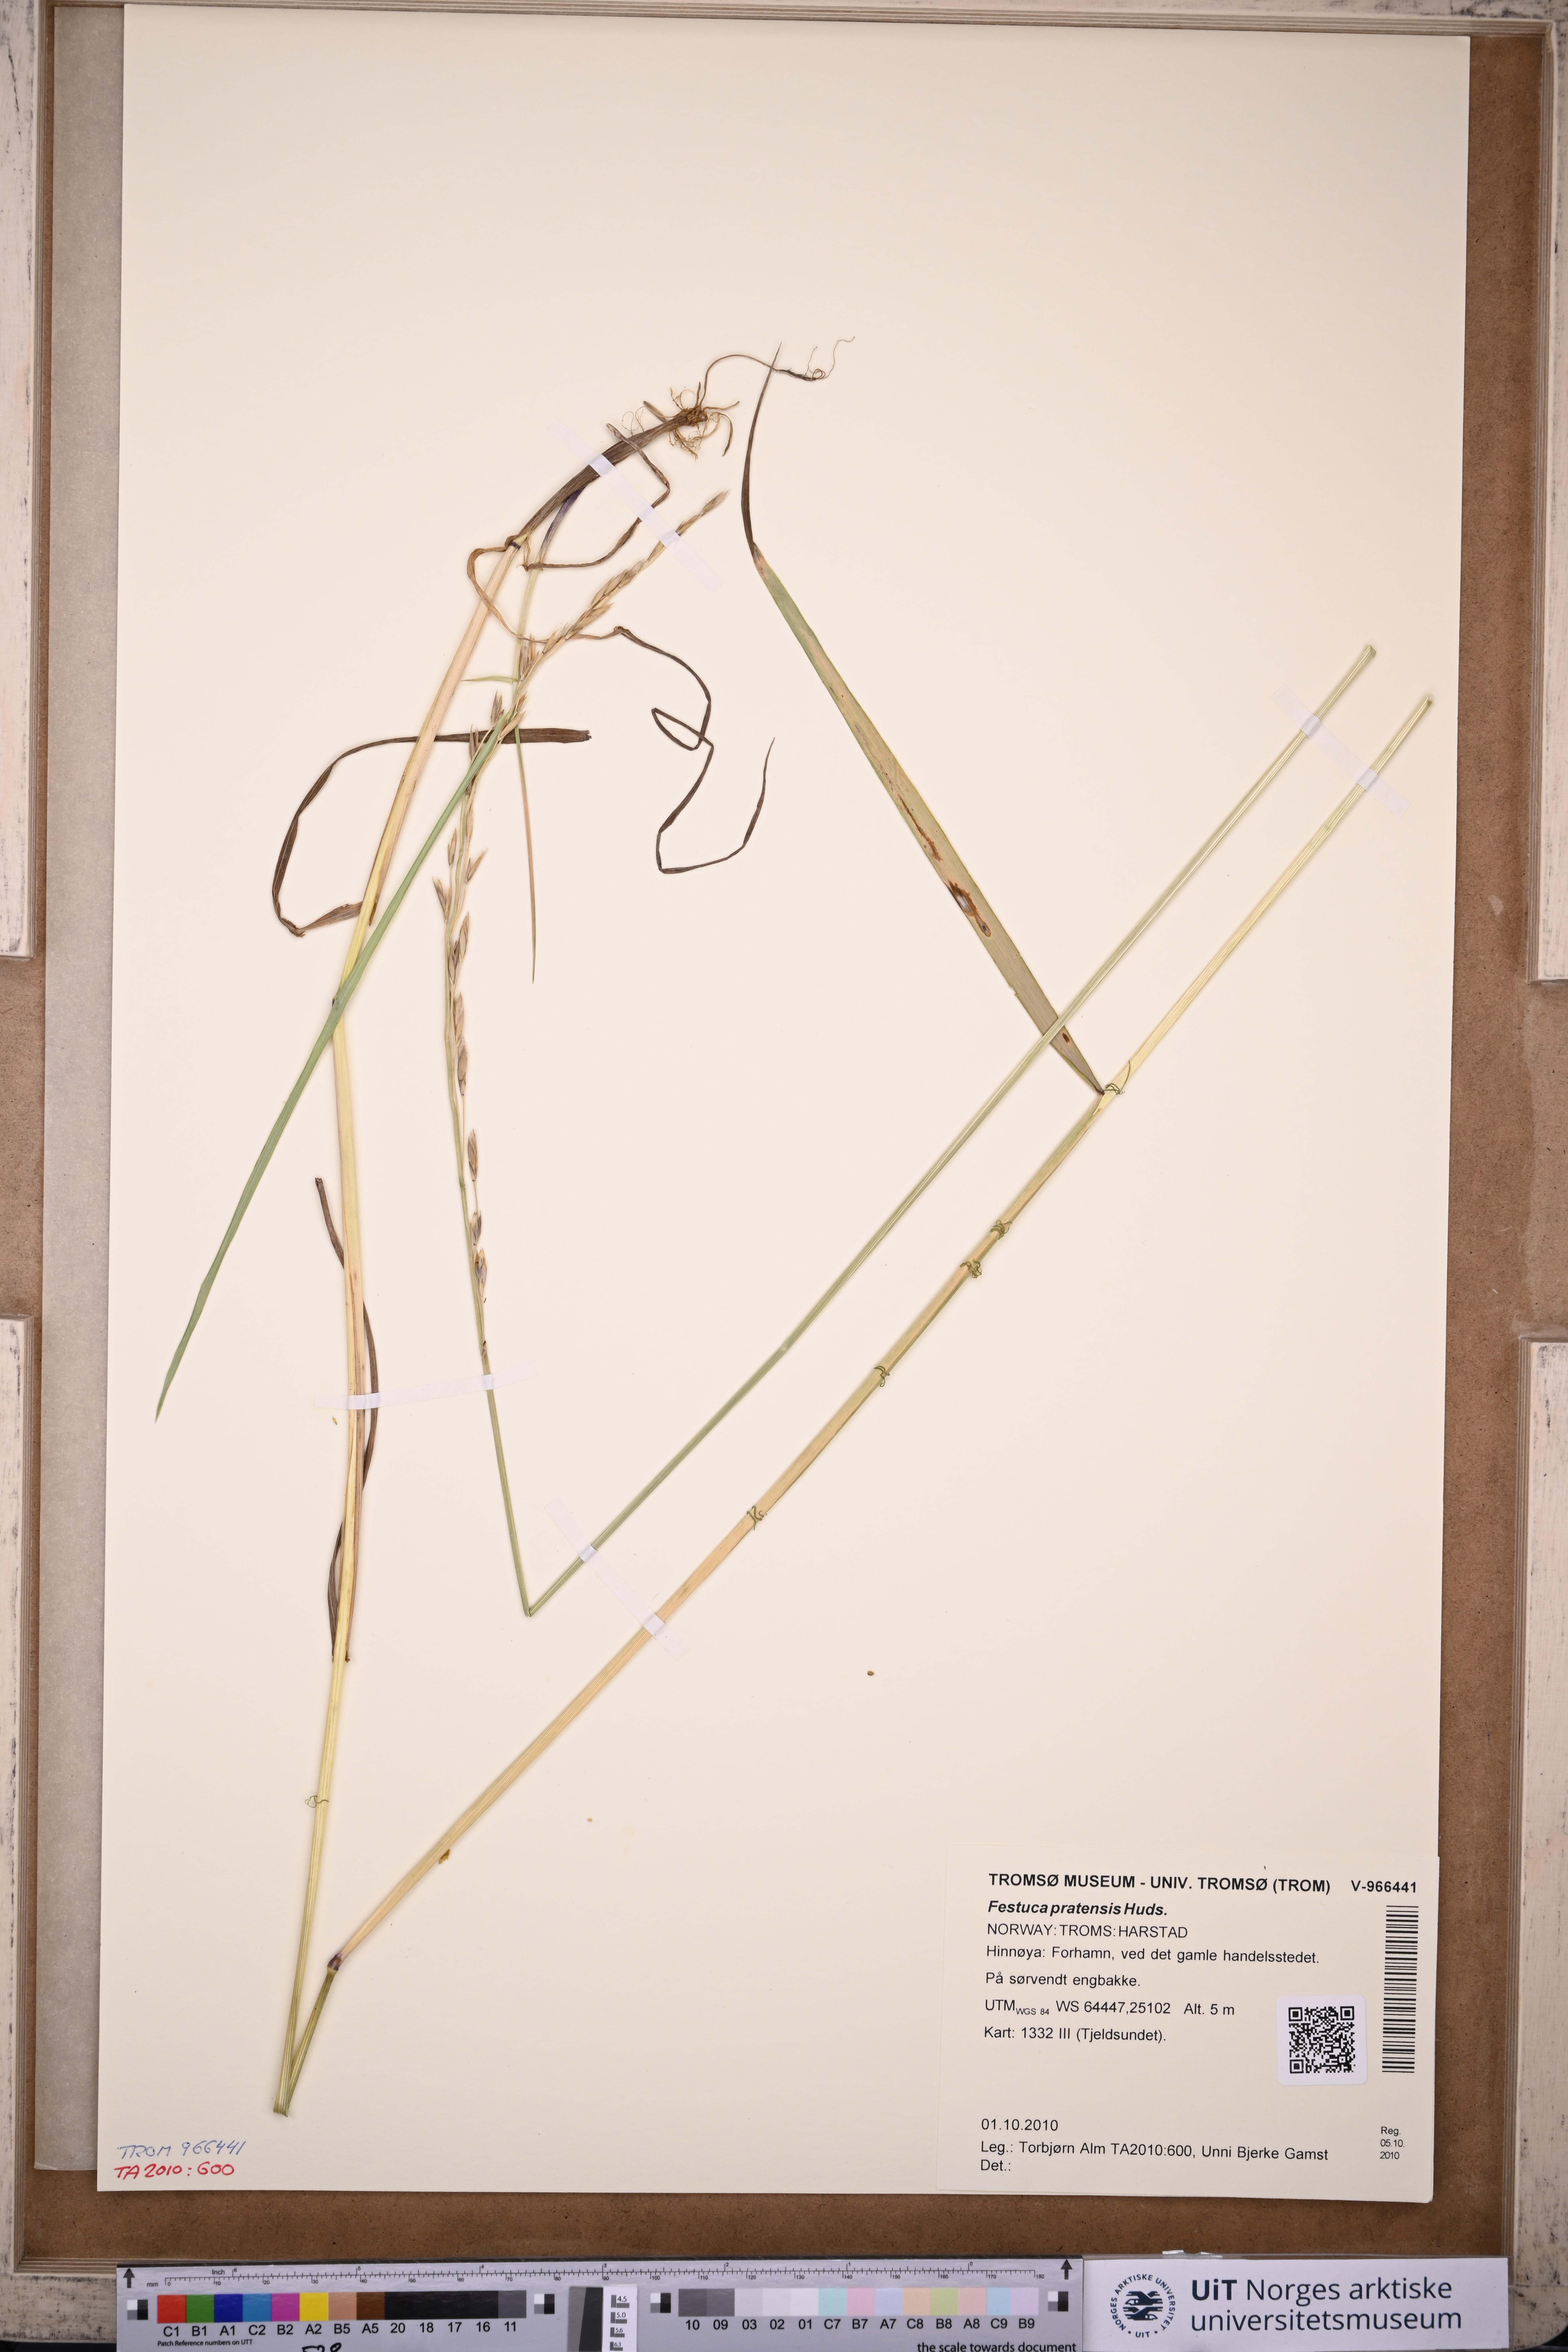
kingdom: Plantae
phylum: Tracheophyta
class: Liliopsida
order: Poales
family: Poaceae
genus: Lolium
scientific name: Lolium pratense
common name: Dover grass
